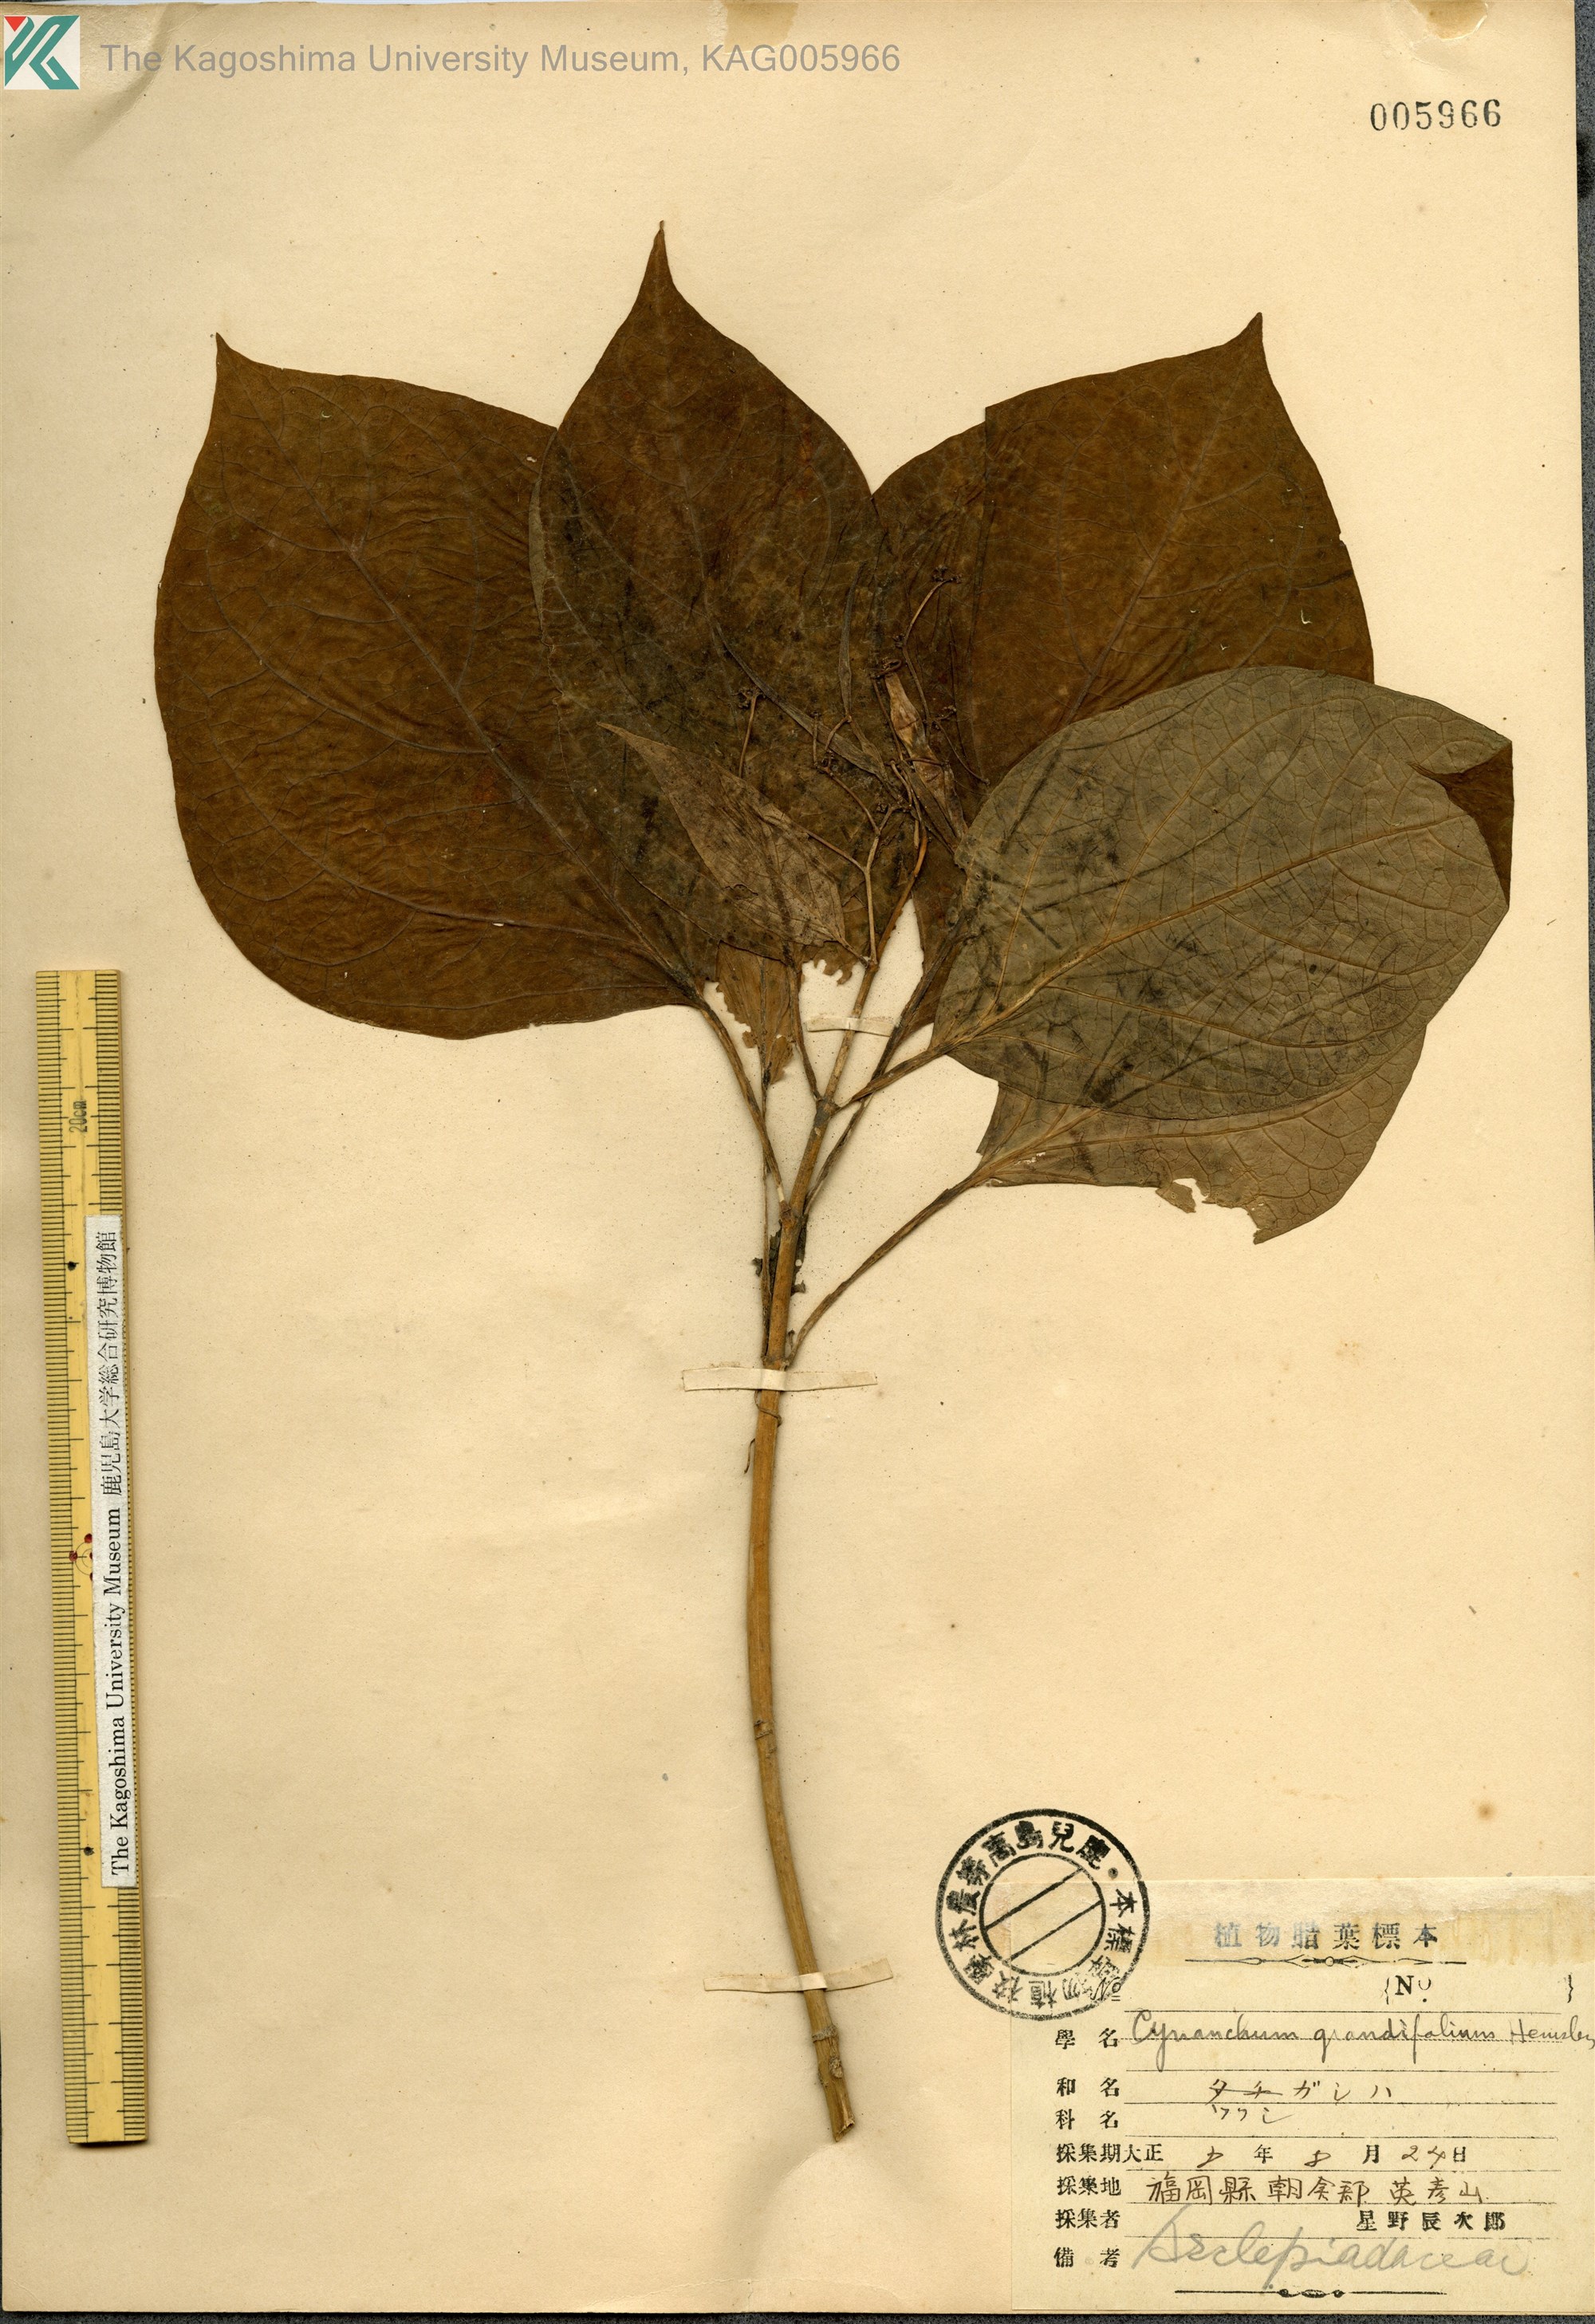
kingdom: Plantae
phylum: Tracheophyta
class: Magnoliopsida
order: Gentianales
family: Apocynaceae
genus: Vincetoxicum
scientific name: Vincetoxicum macrophyllum
